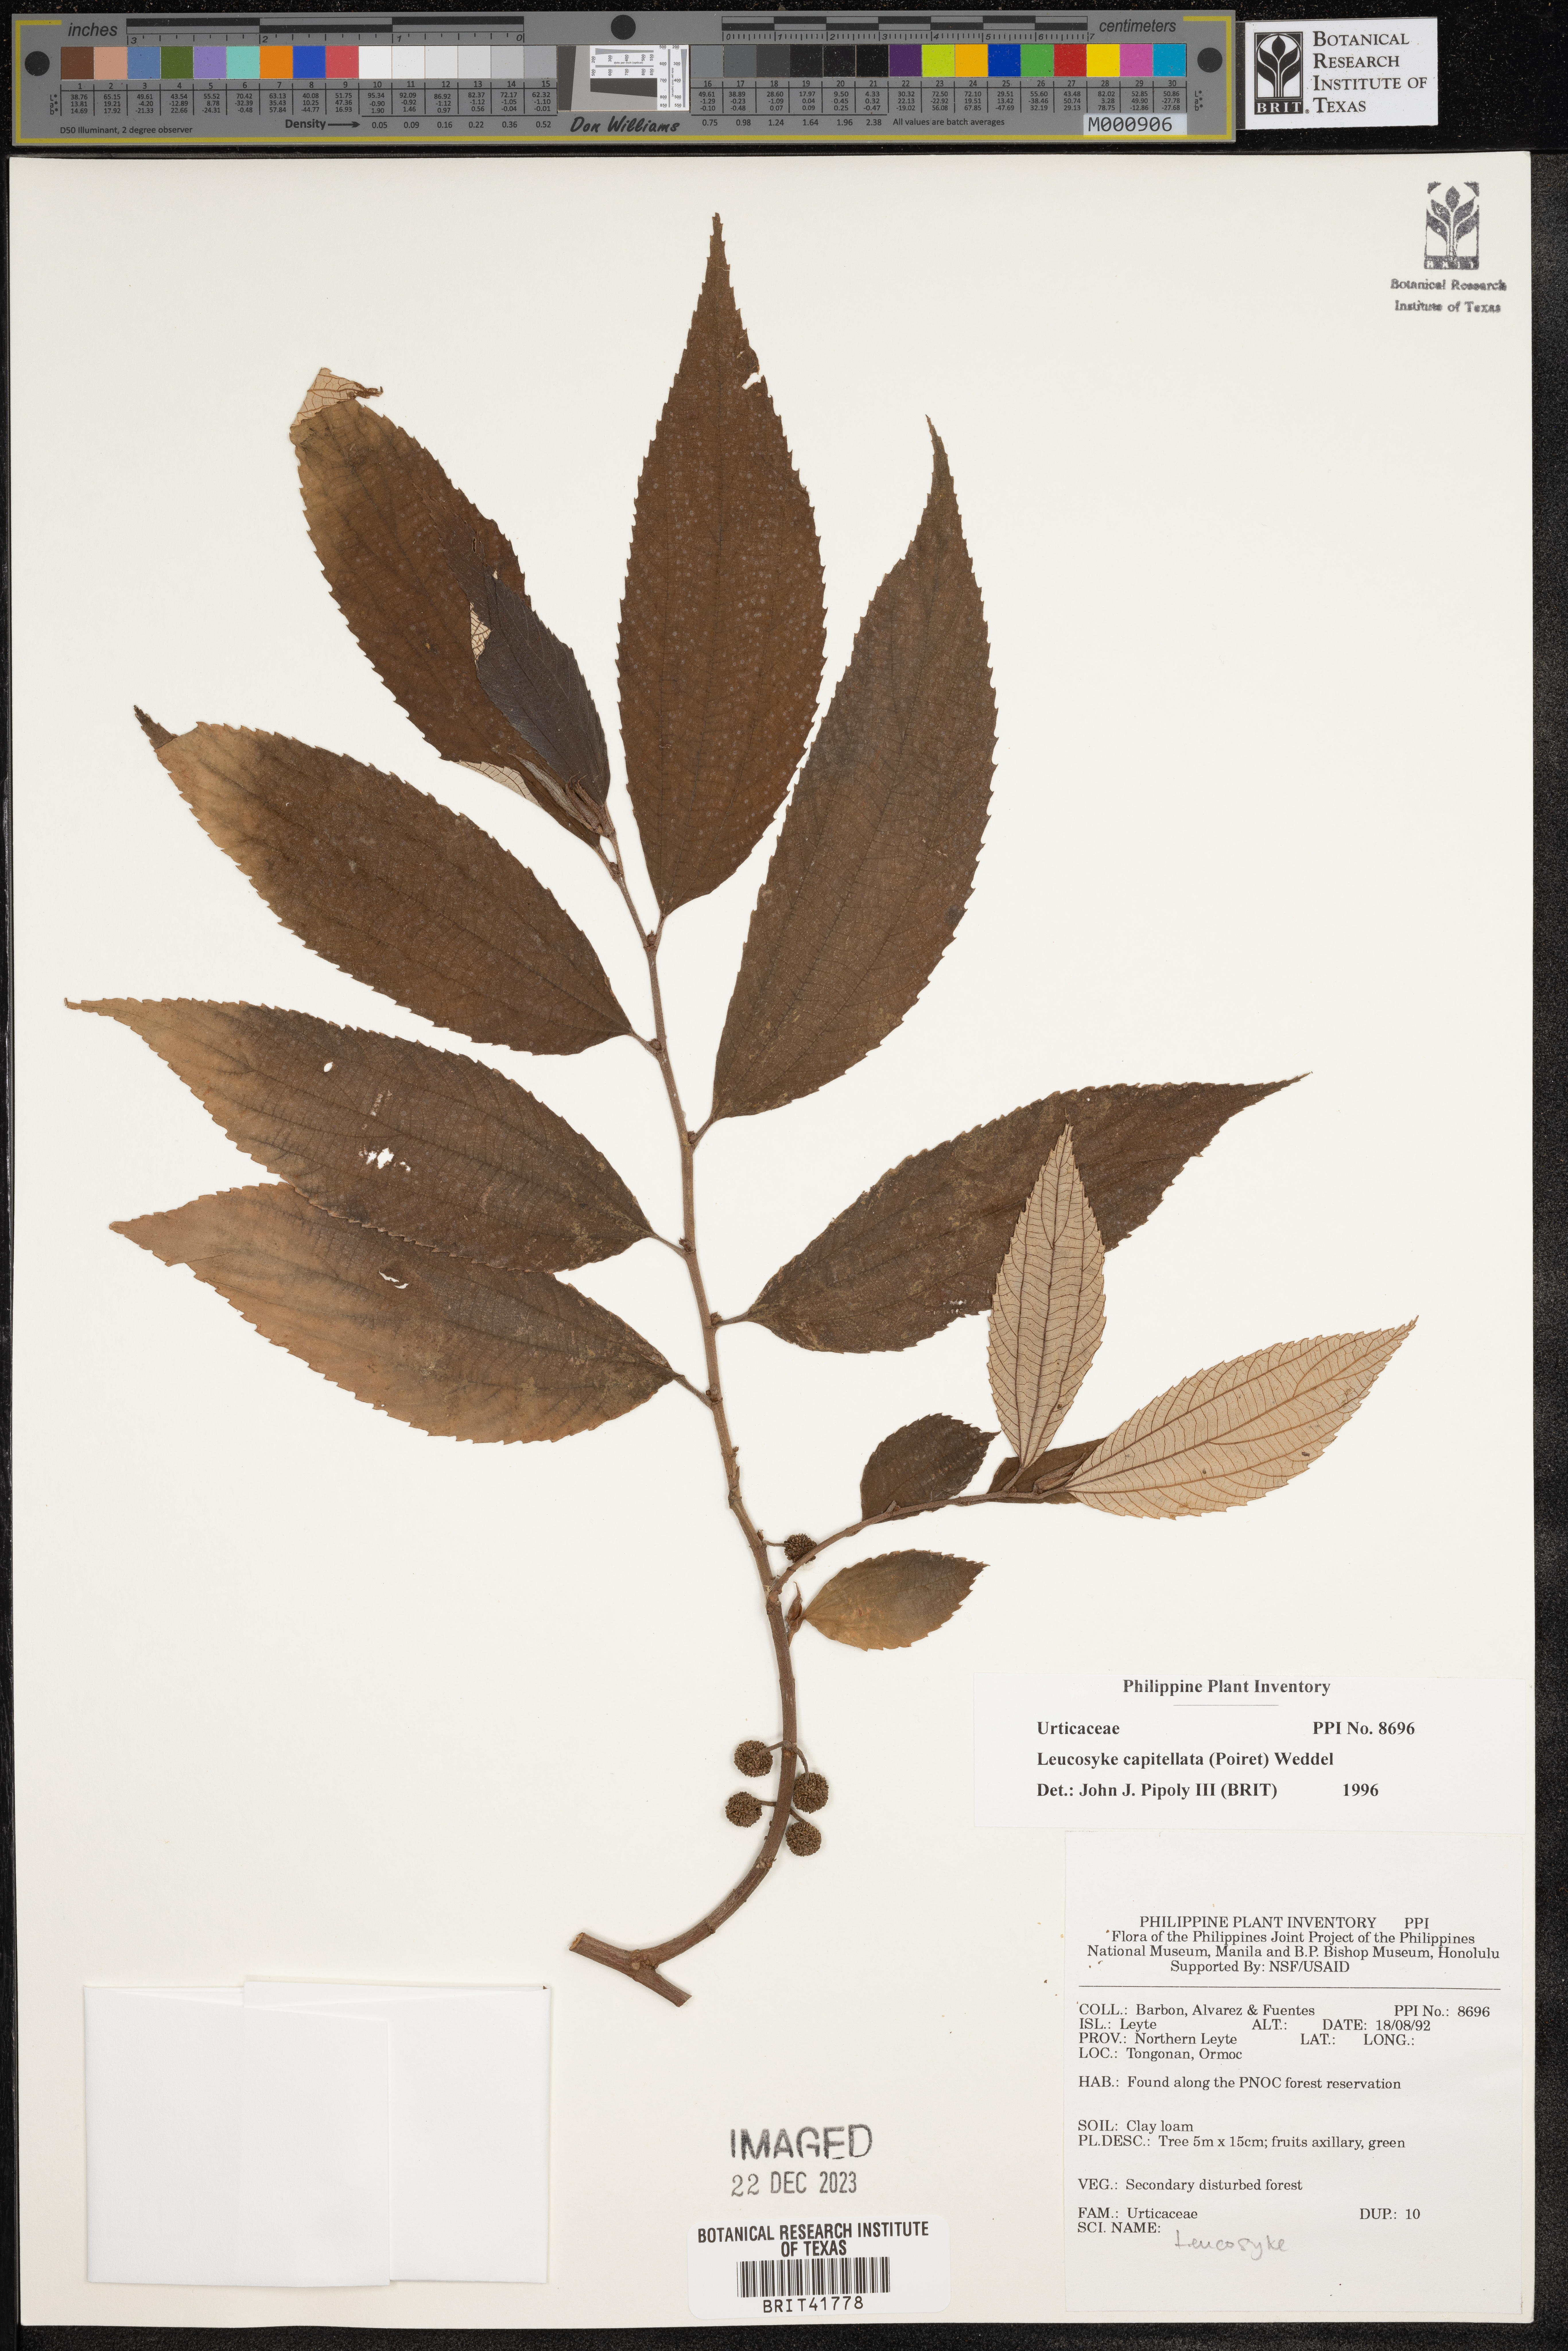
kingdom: Plantae
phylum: Tracheophyta
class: Magnoliopsida
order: Rosales
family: Urticaceae
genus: Leucosyke
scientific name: Leucosyke capitellata
